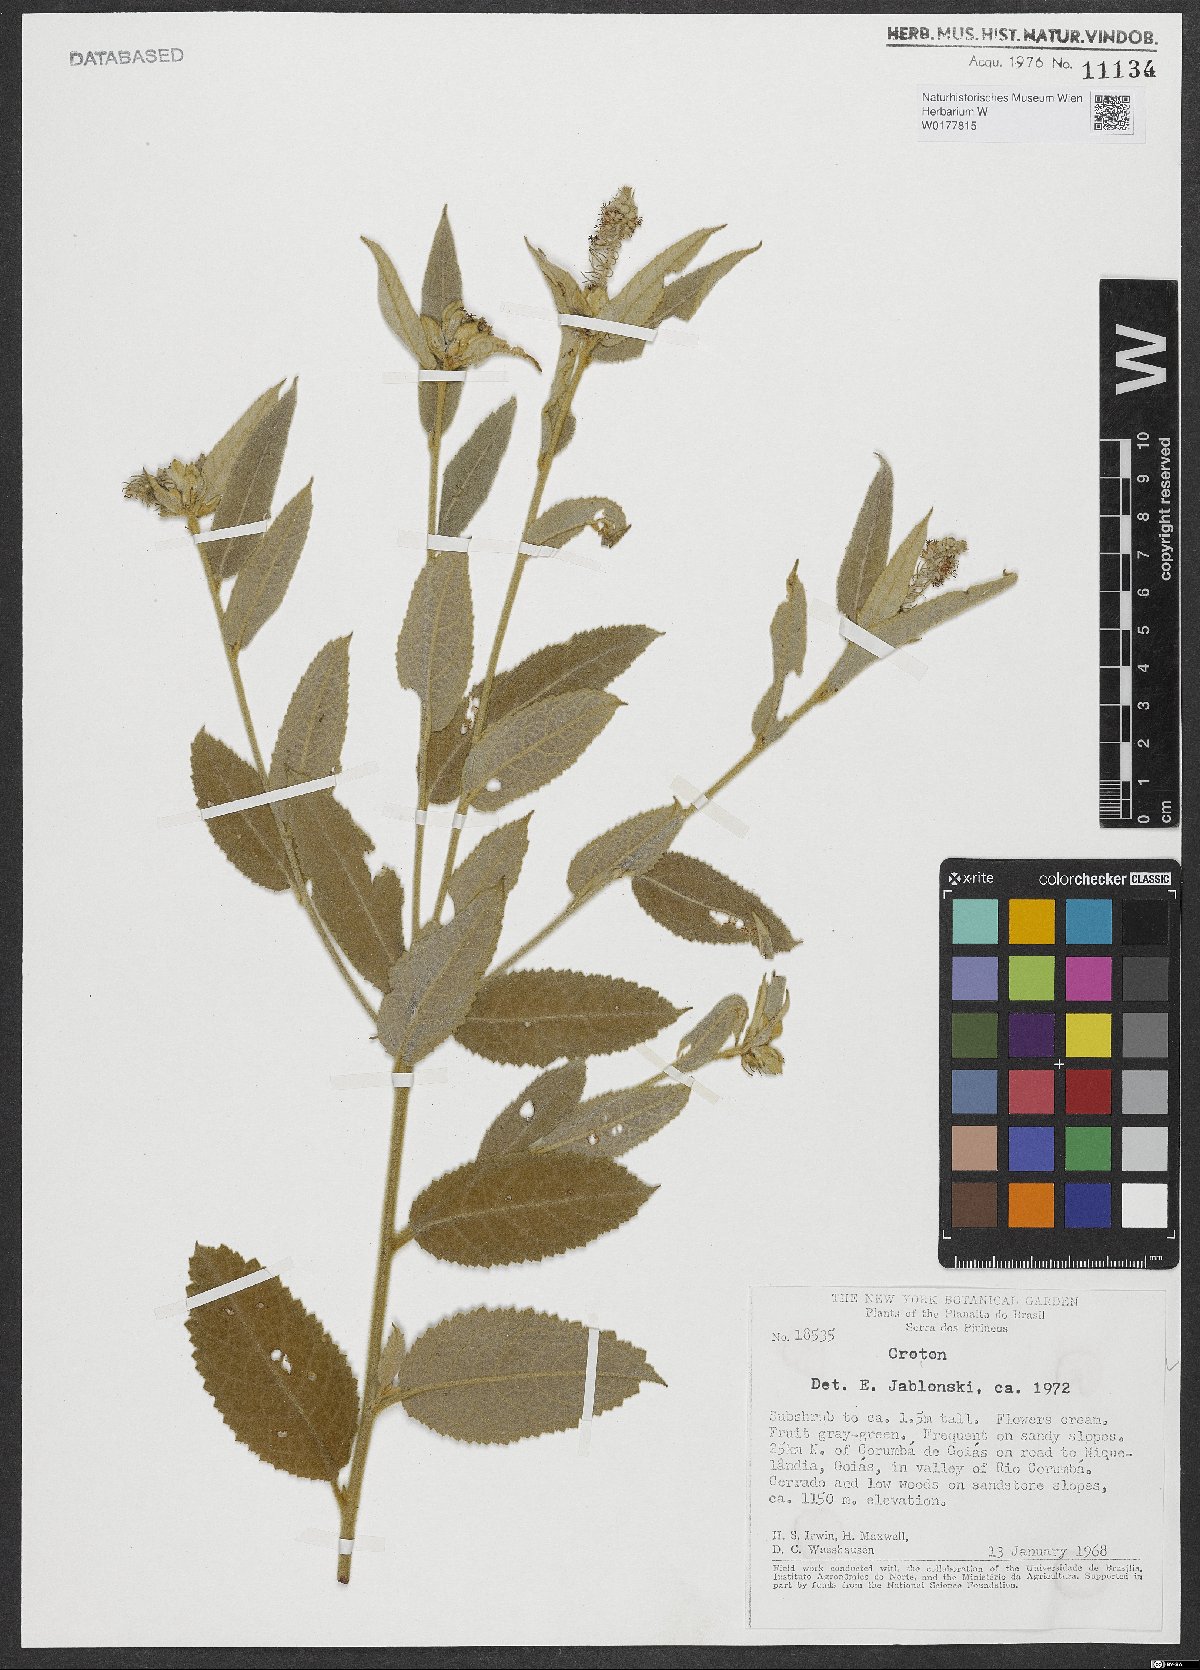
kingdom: Plantae
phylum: Tracheophyta
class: Magnoliopsida
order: Malpighiales
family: Euphorbiaceae
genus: Croton
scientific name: Croton
